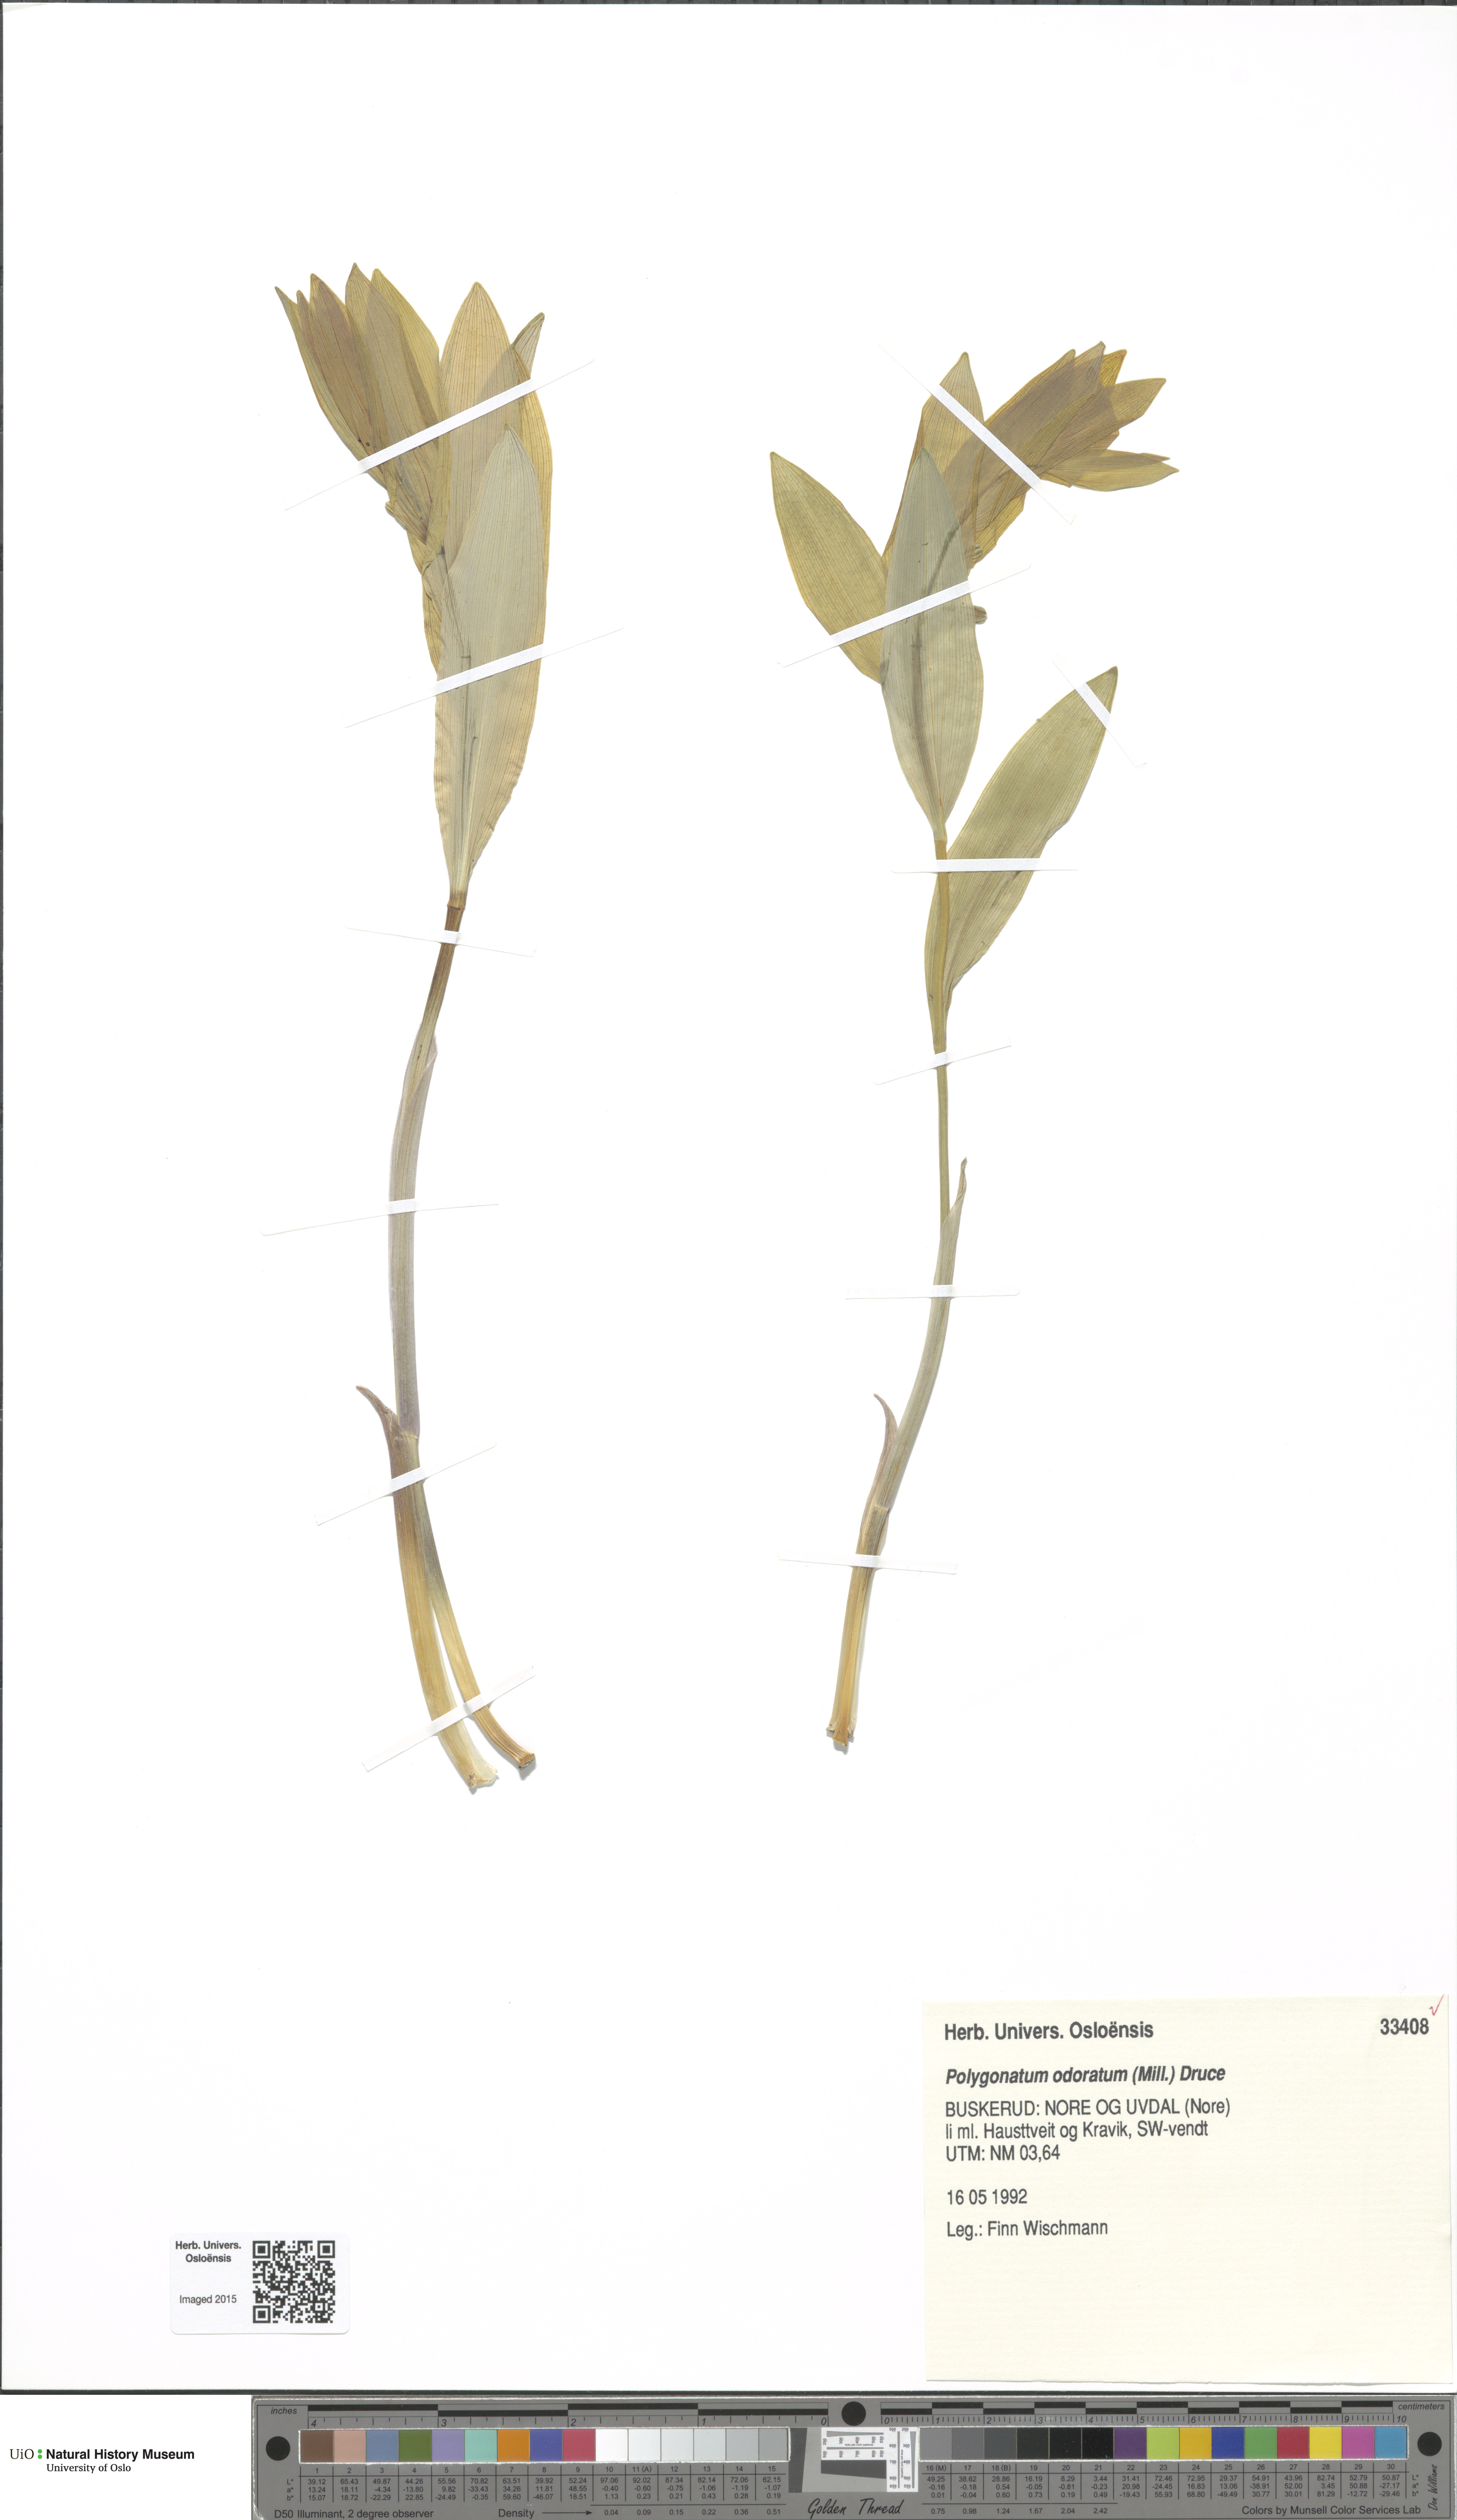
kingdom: Plantae
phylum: Tracheophyta
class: Liliopsida
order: Asparagales
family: Asparagaceae
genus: Polygonatum
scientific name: Polygonatum odoratum
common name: Angular solomon's-seal
